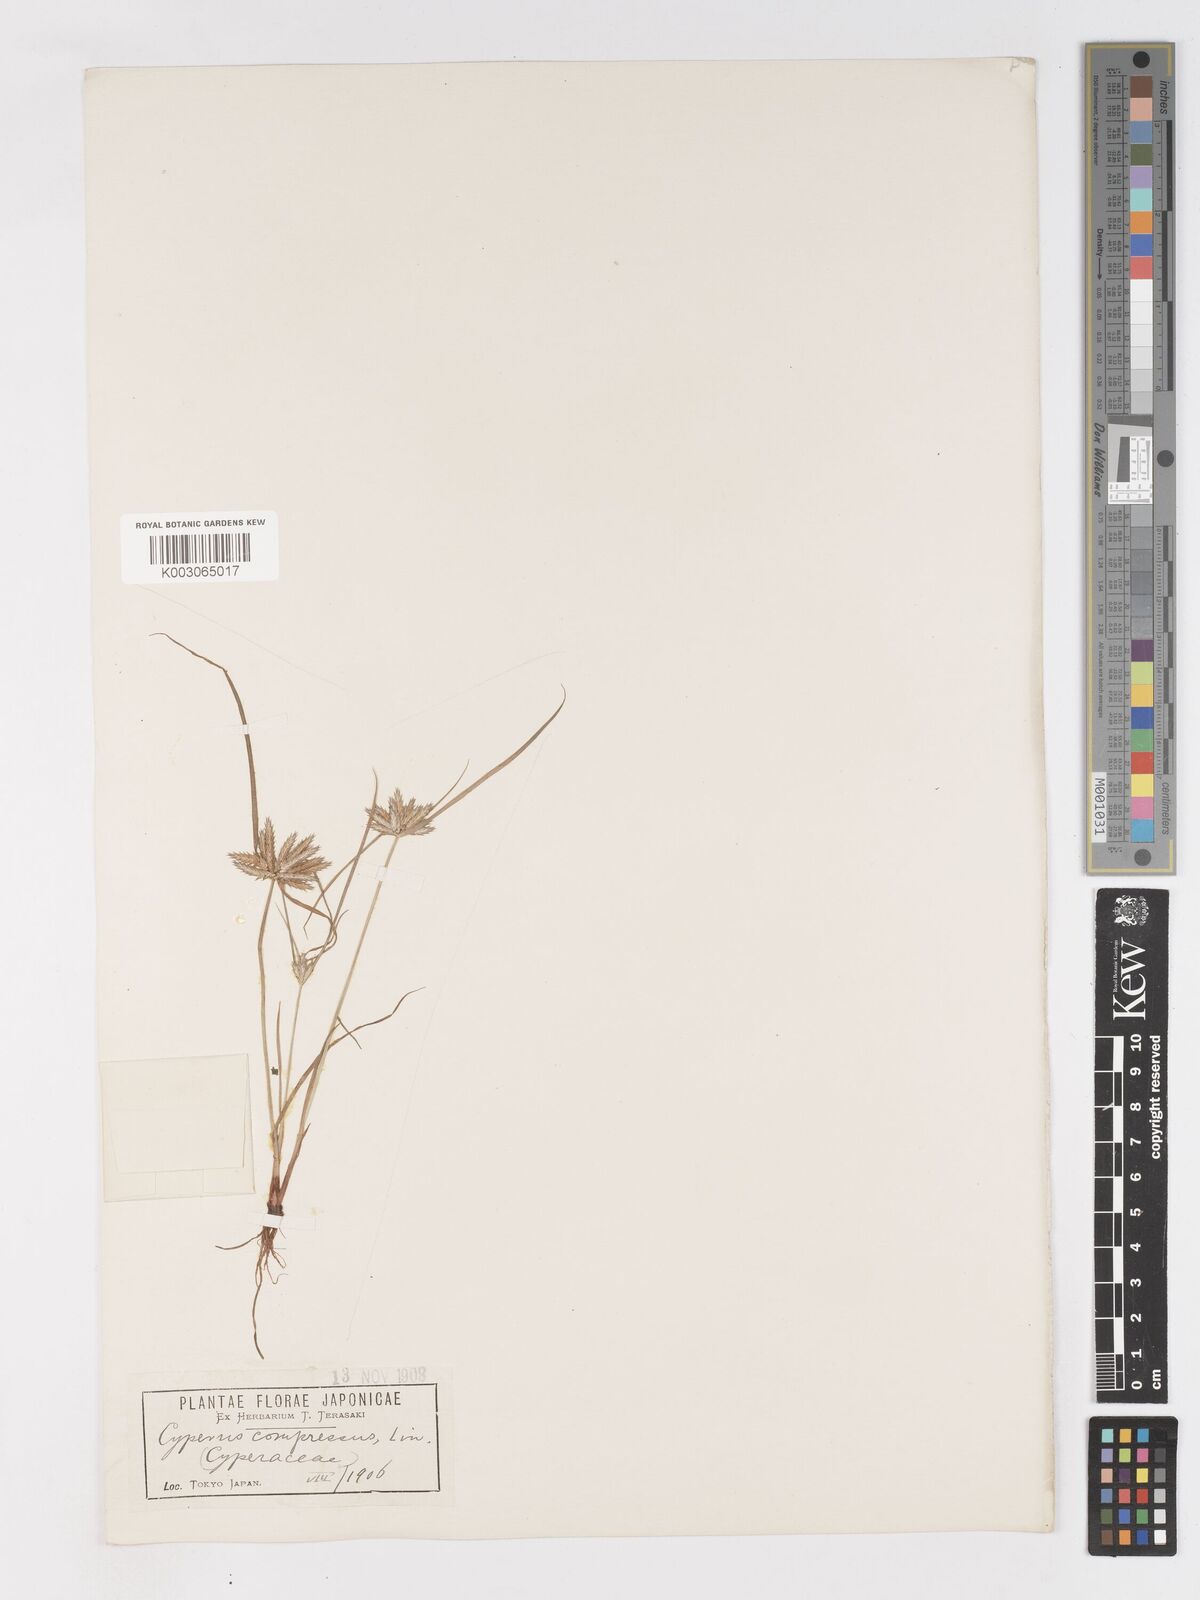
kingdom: Plantae
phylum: Tracheophyta
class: Liliopsida
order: Poales
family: Cyperaceae
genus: Cyperus
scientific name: Cyperus compressus
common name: Poorland flatsedge
